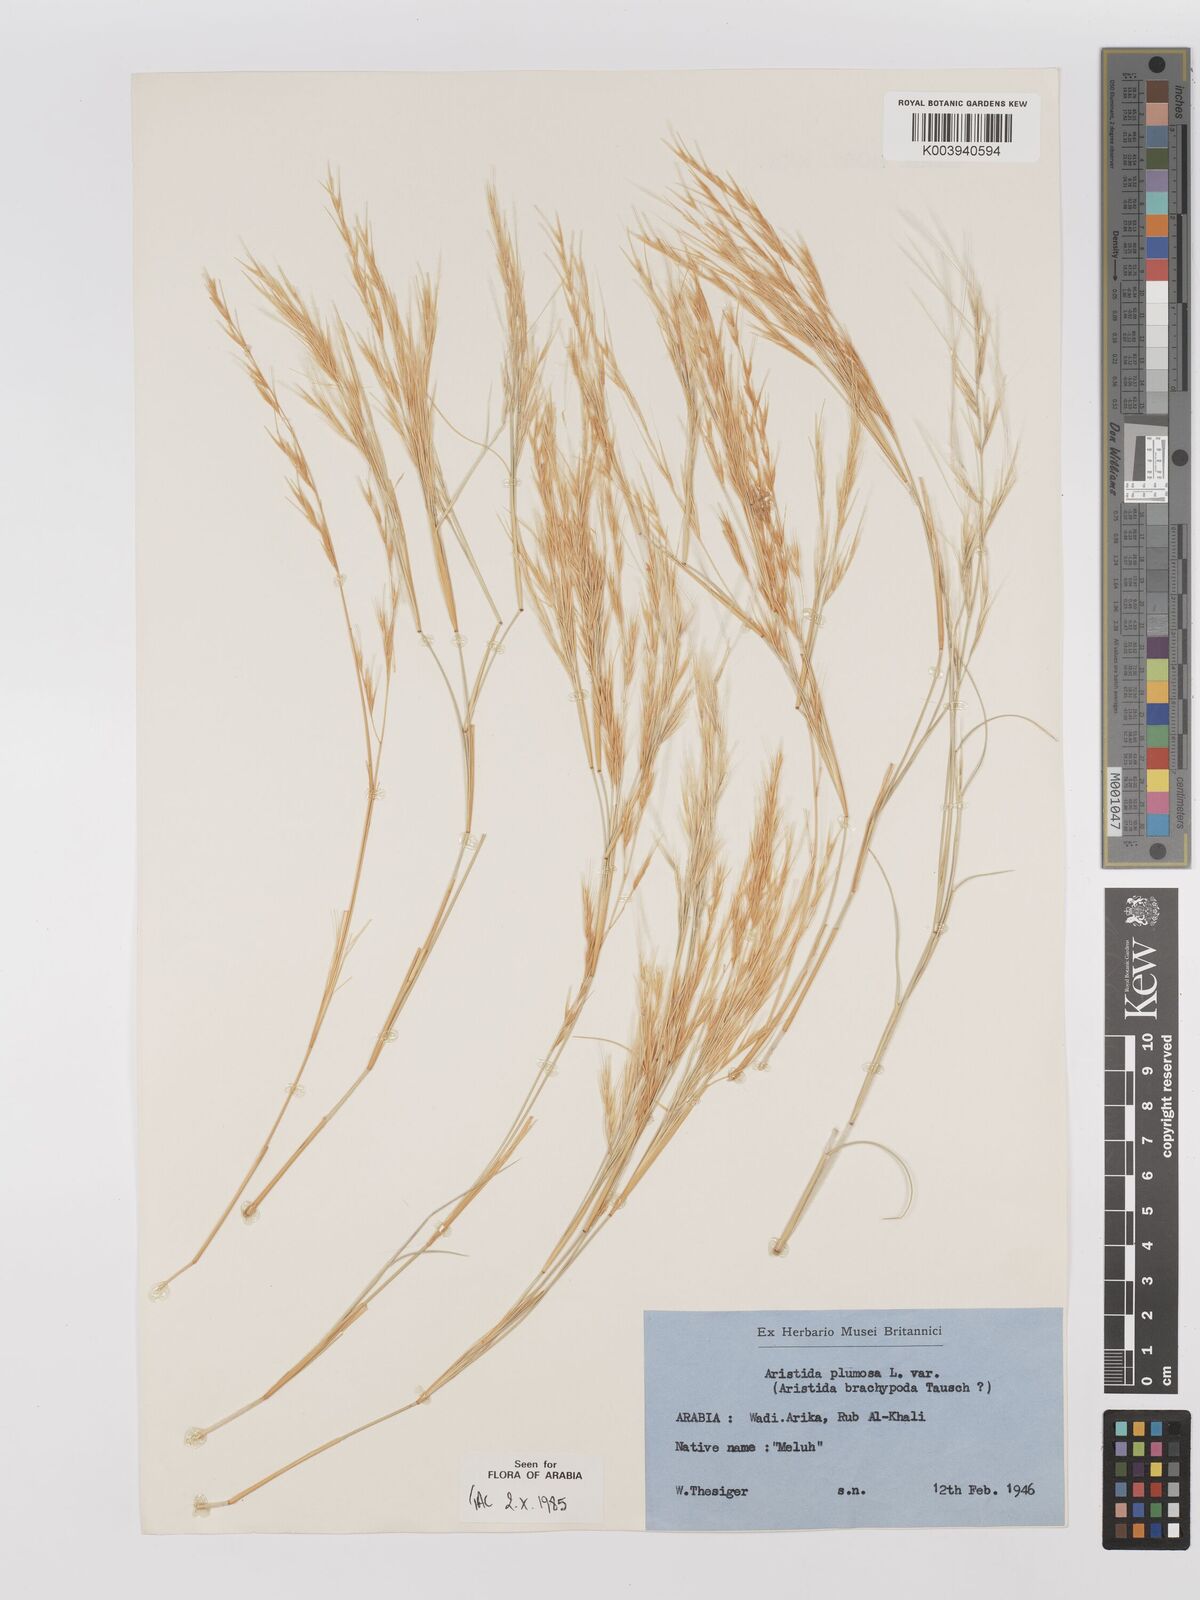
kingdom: Plantae
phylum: Tracheophyta
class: Liliopsida
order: Poales
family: Poaceae
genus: Stipagrostis
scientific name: Stipagrostis plumosa
